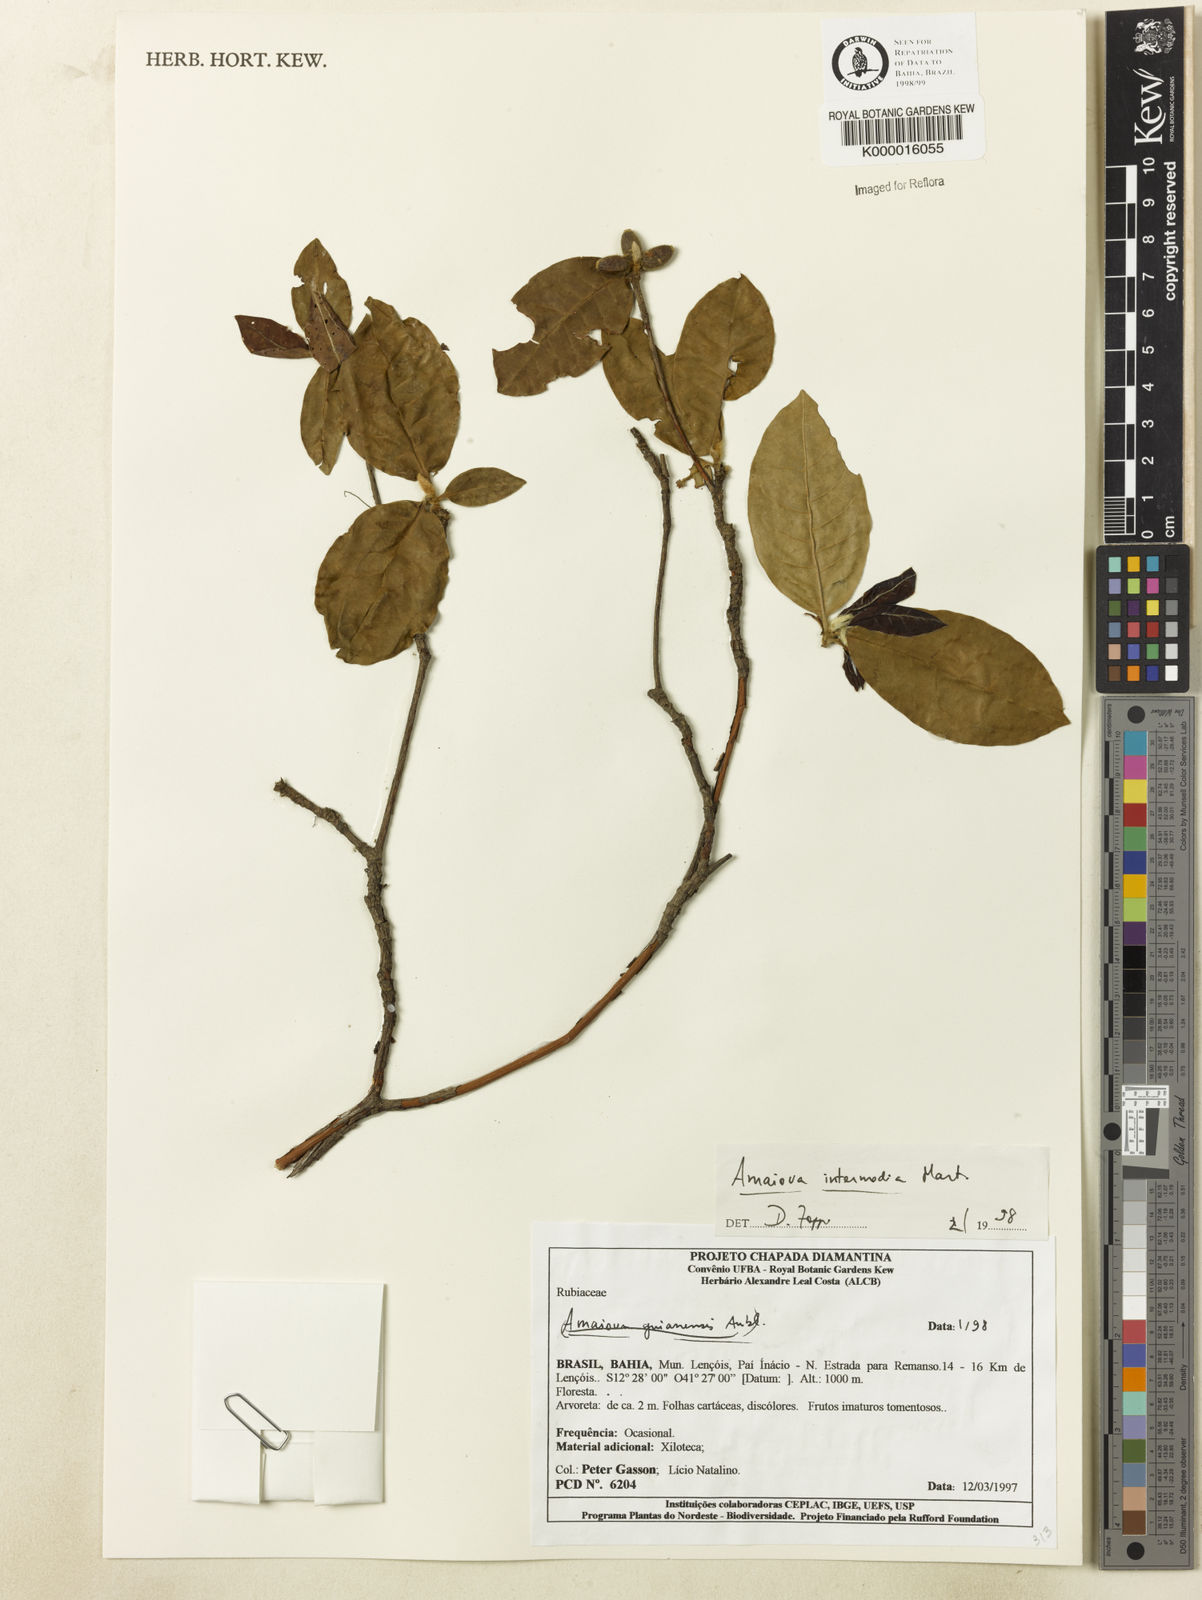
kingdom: Plantae
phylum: Tracheophyta
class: Magnoliopsida
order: Gentianales
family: Rubiaceae
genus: Amaioua
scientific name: Amaioua
